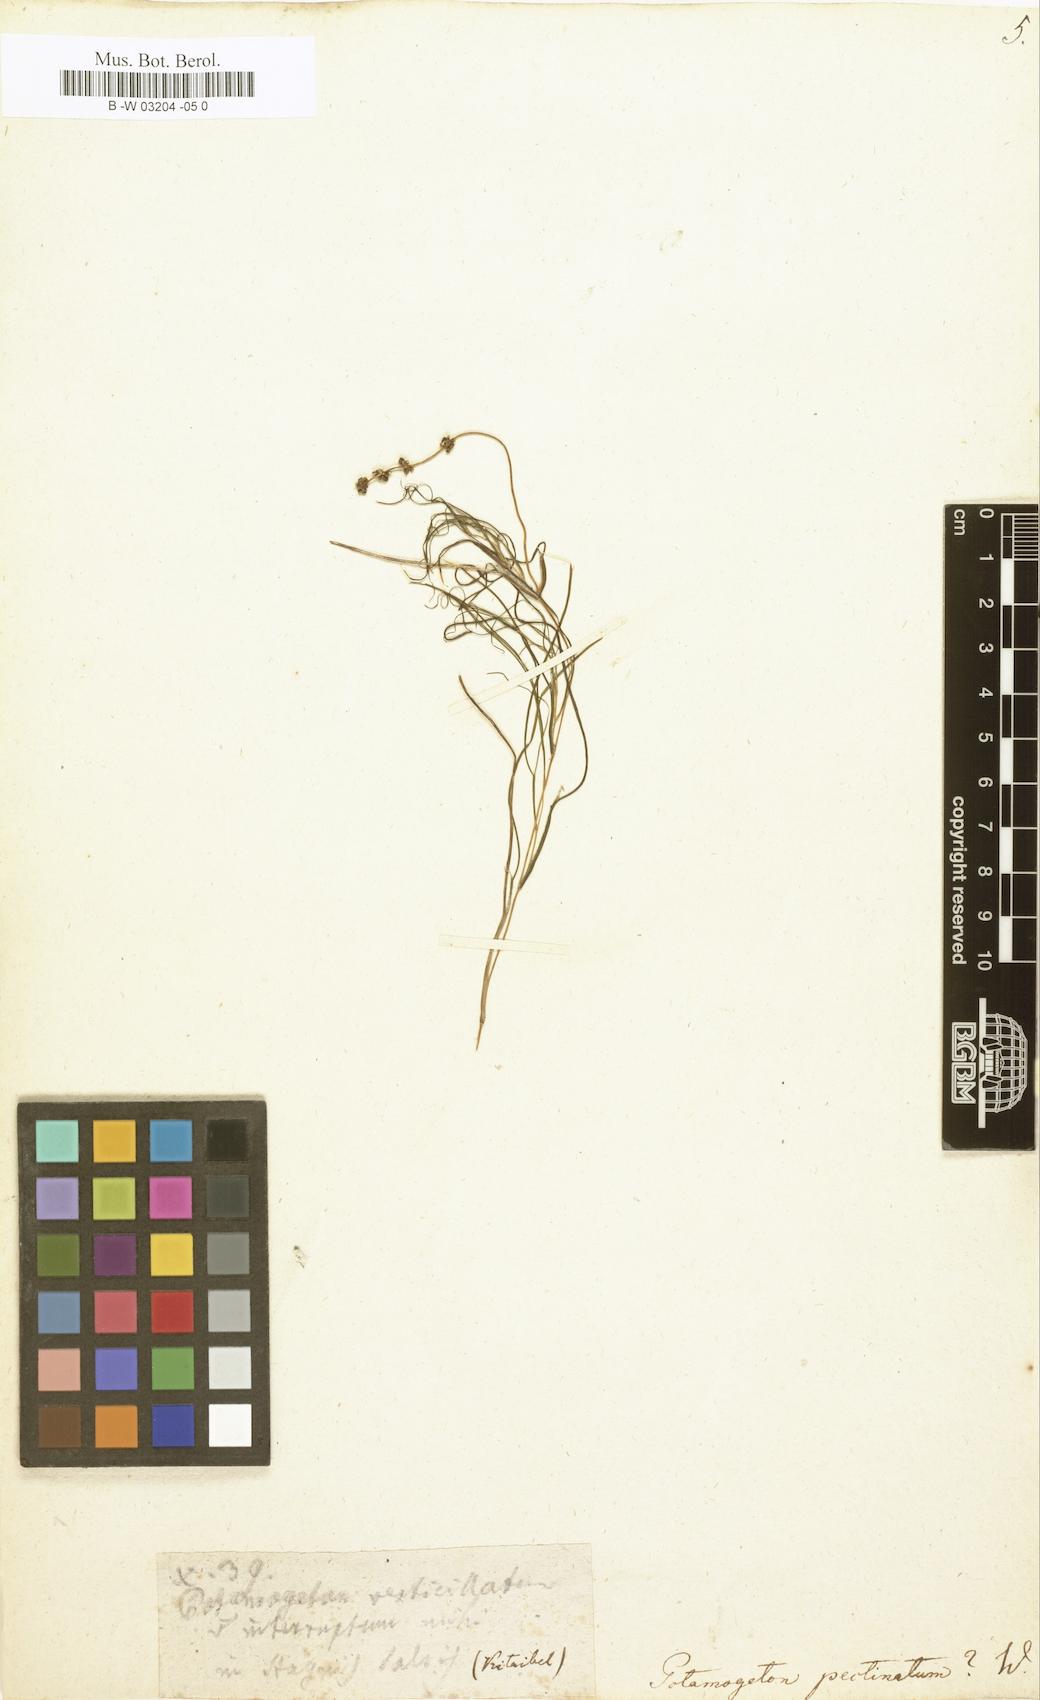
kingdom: Plantae
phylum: Tracheophyta
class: Liliopsida
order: Alismatales
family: Potamogetonaceae
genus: Stuckenia
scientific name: Stuckenia pectinata
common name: Sago pondweed
